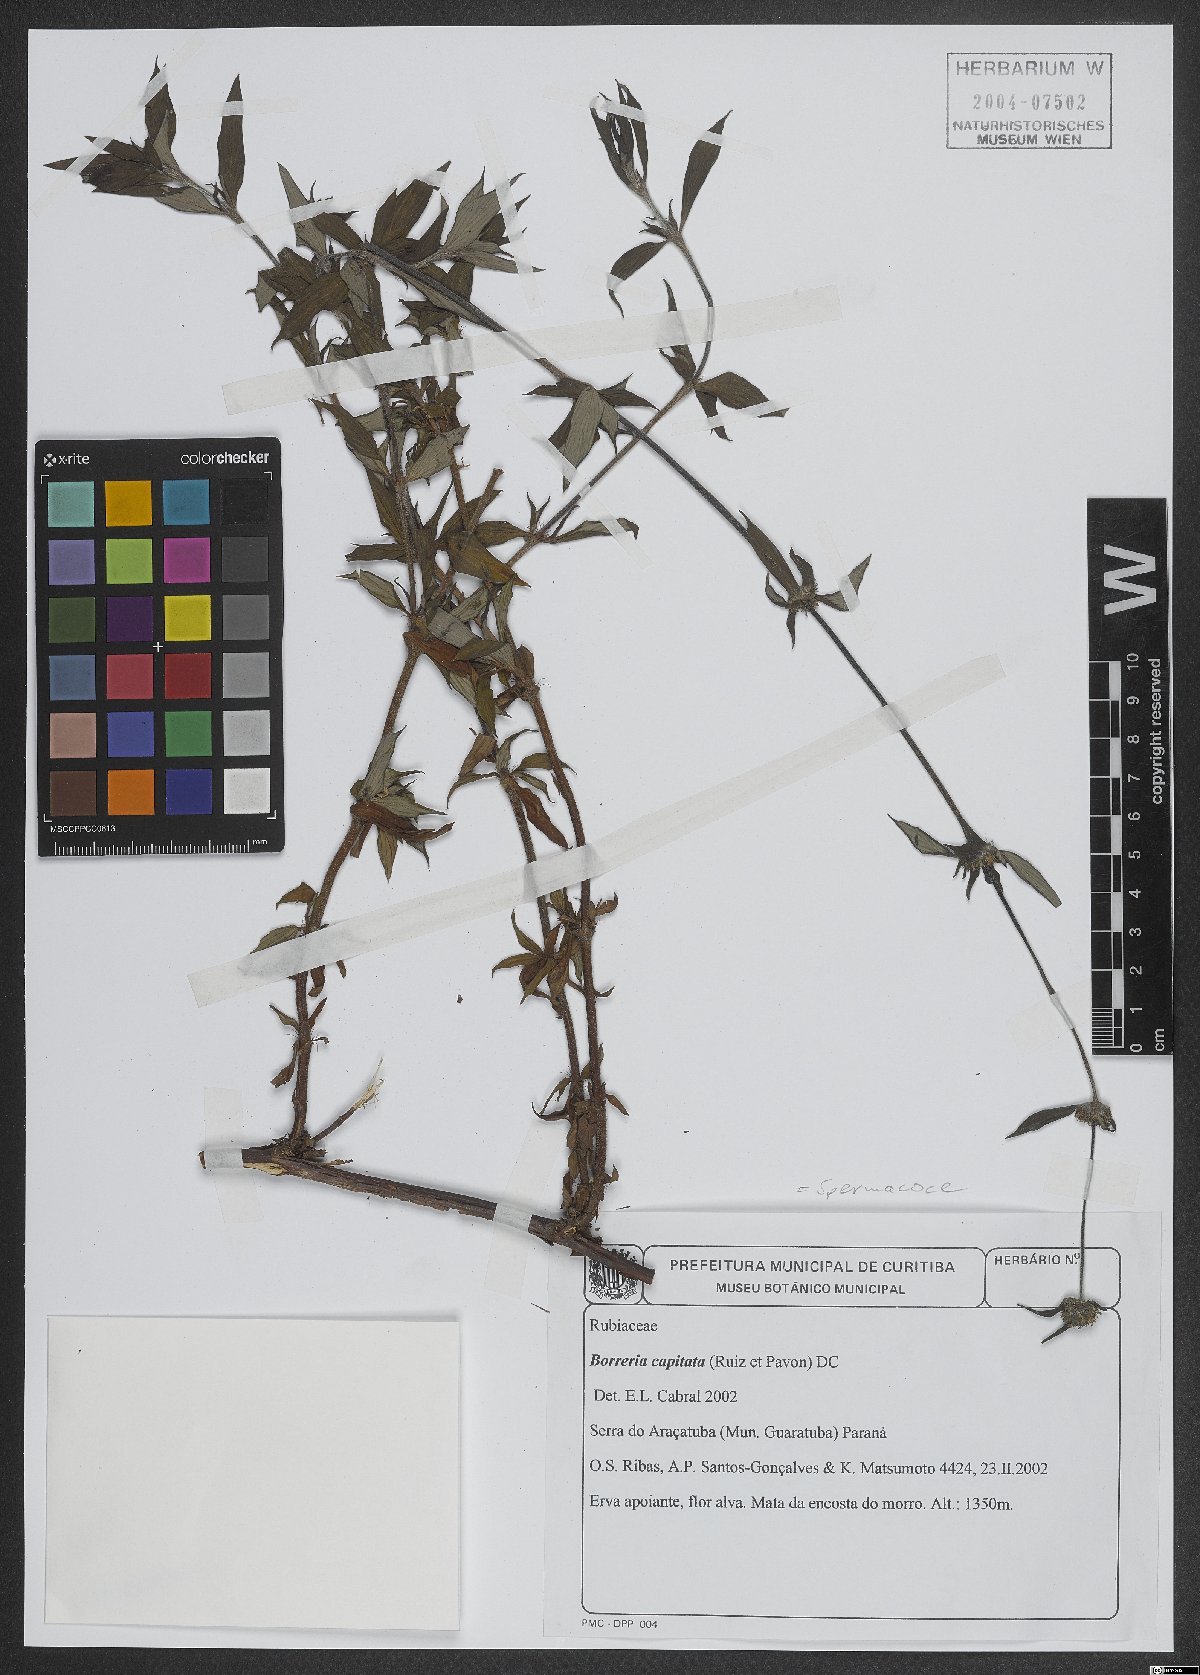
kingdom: Plantae
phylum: Tracheophyta
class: Magnoliopsida
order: Gentianales
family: Rubiaceae
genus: Spermacoce
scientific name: Spermacoce capitata
